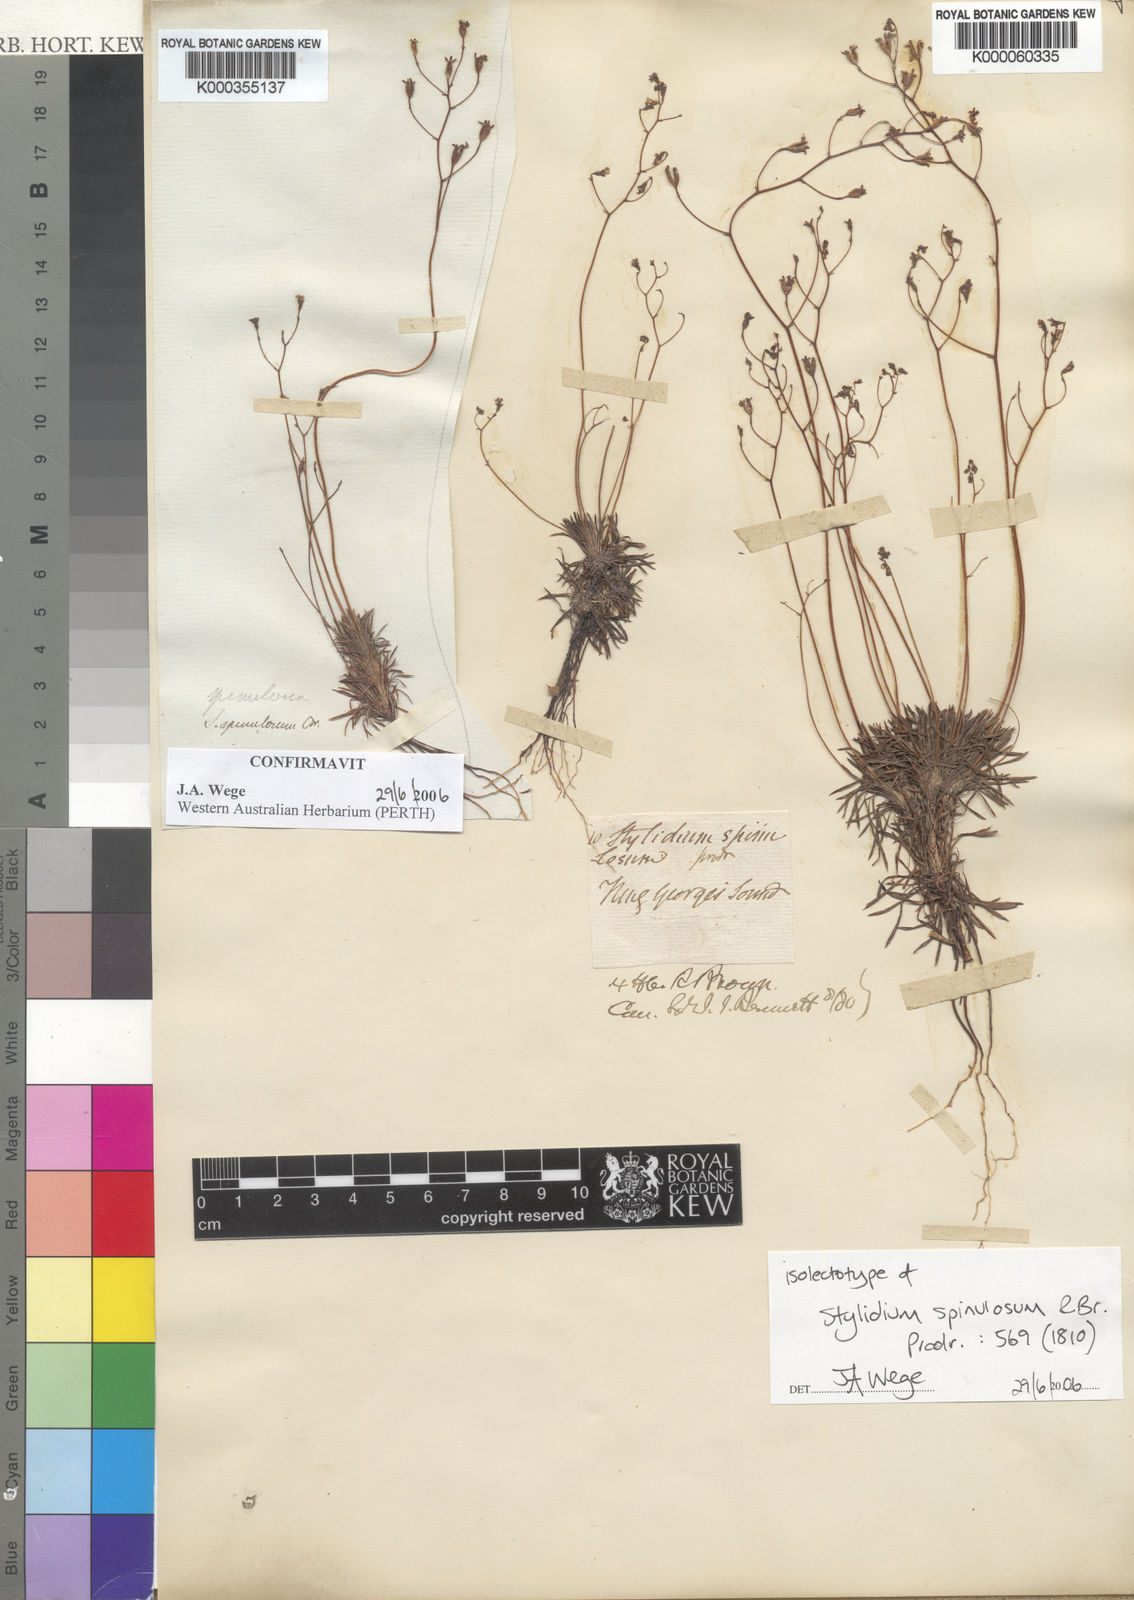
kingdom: Plantae
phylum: Tracheophyta
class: Magnoliopsida
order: Asterales
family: Stylidiaceae
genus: Stylidium
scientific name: Stylidium spinulosum
